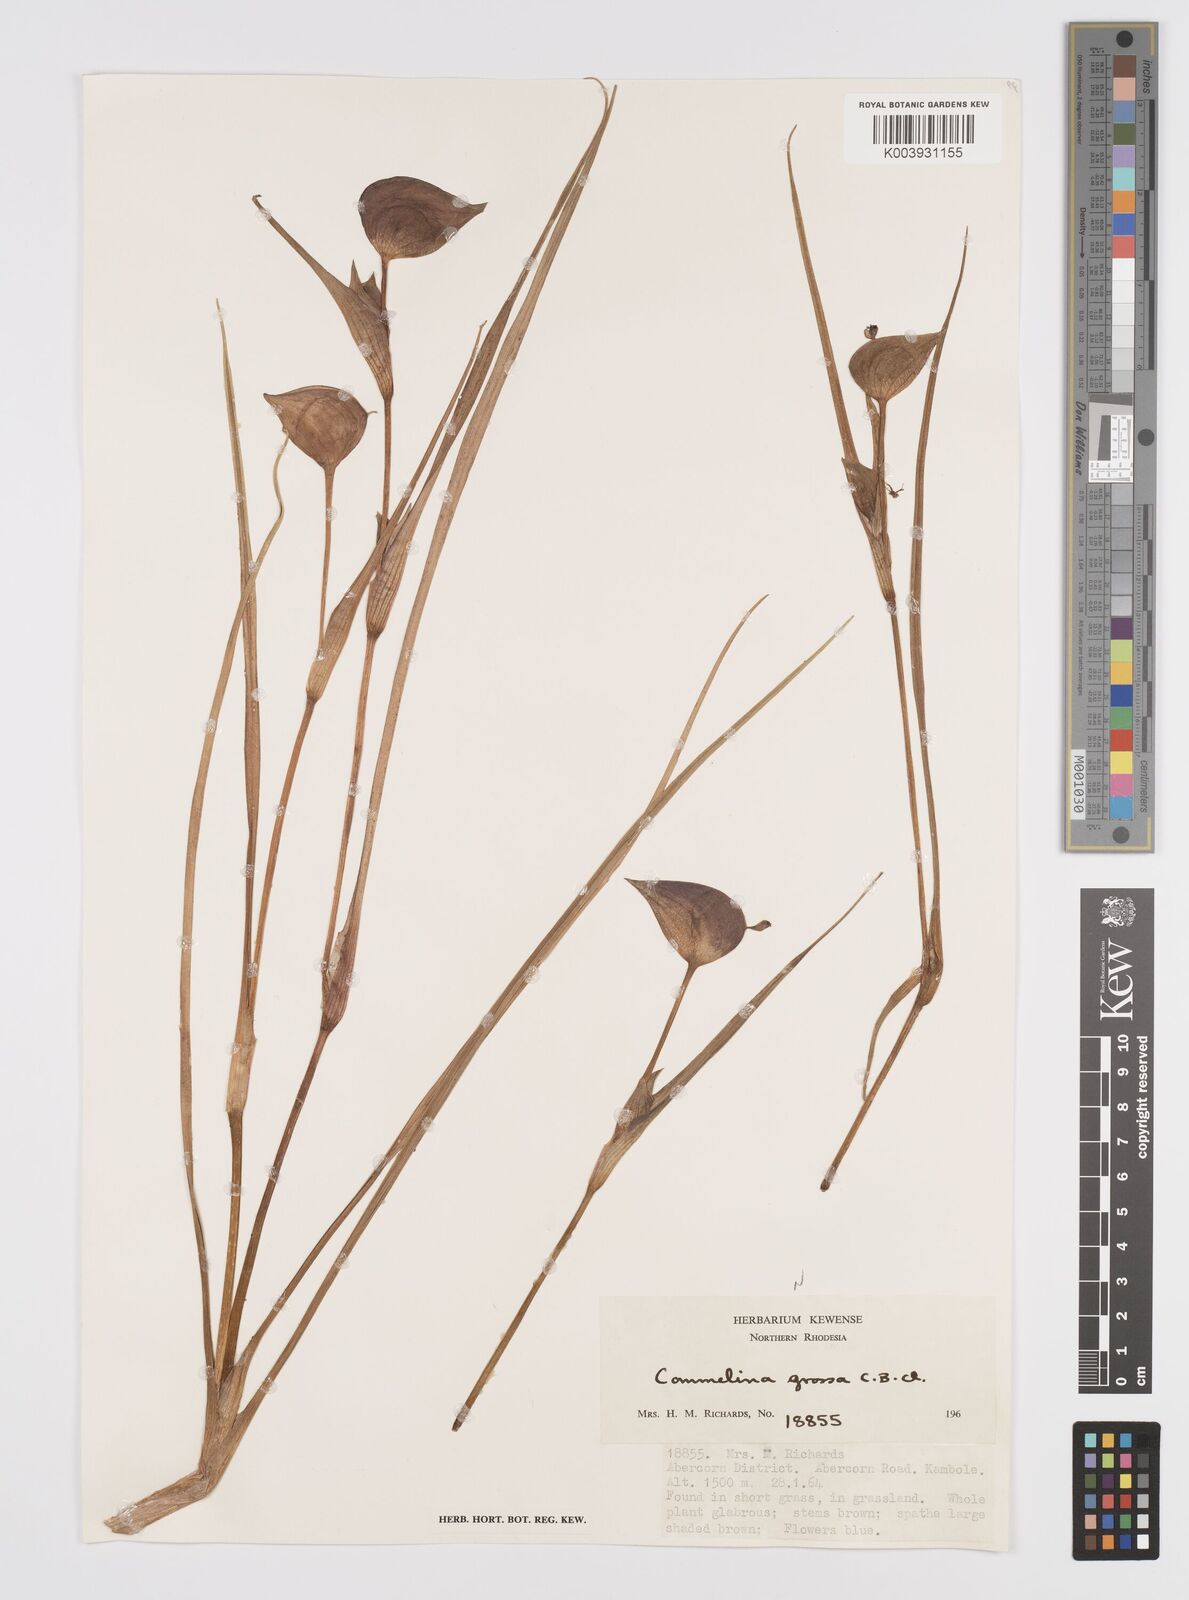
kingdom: Plantae
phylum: Tracheophyta
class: Liliopsida
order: Commelinales
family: Commelinaceae
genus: Commelina
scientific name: Commelina grossa
